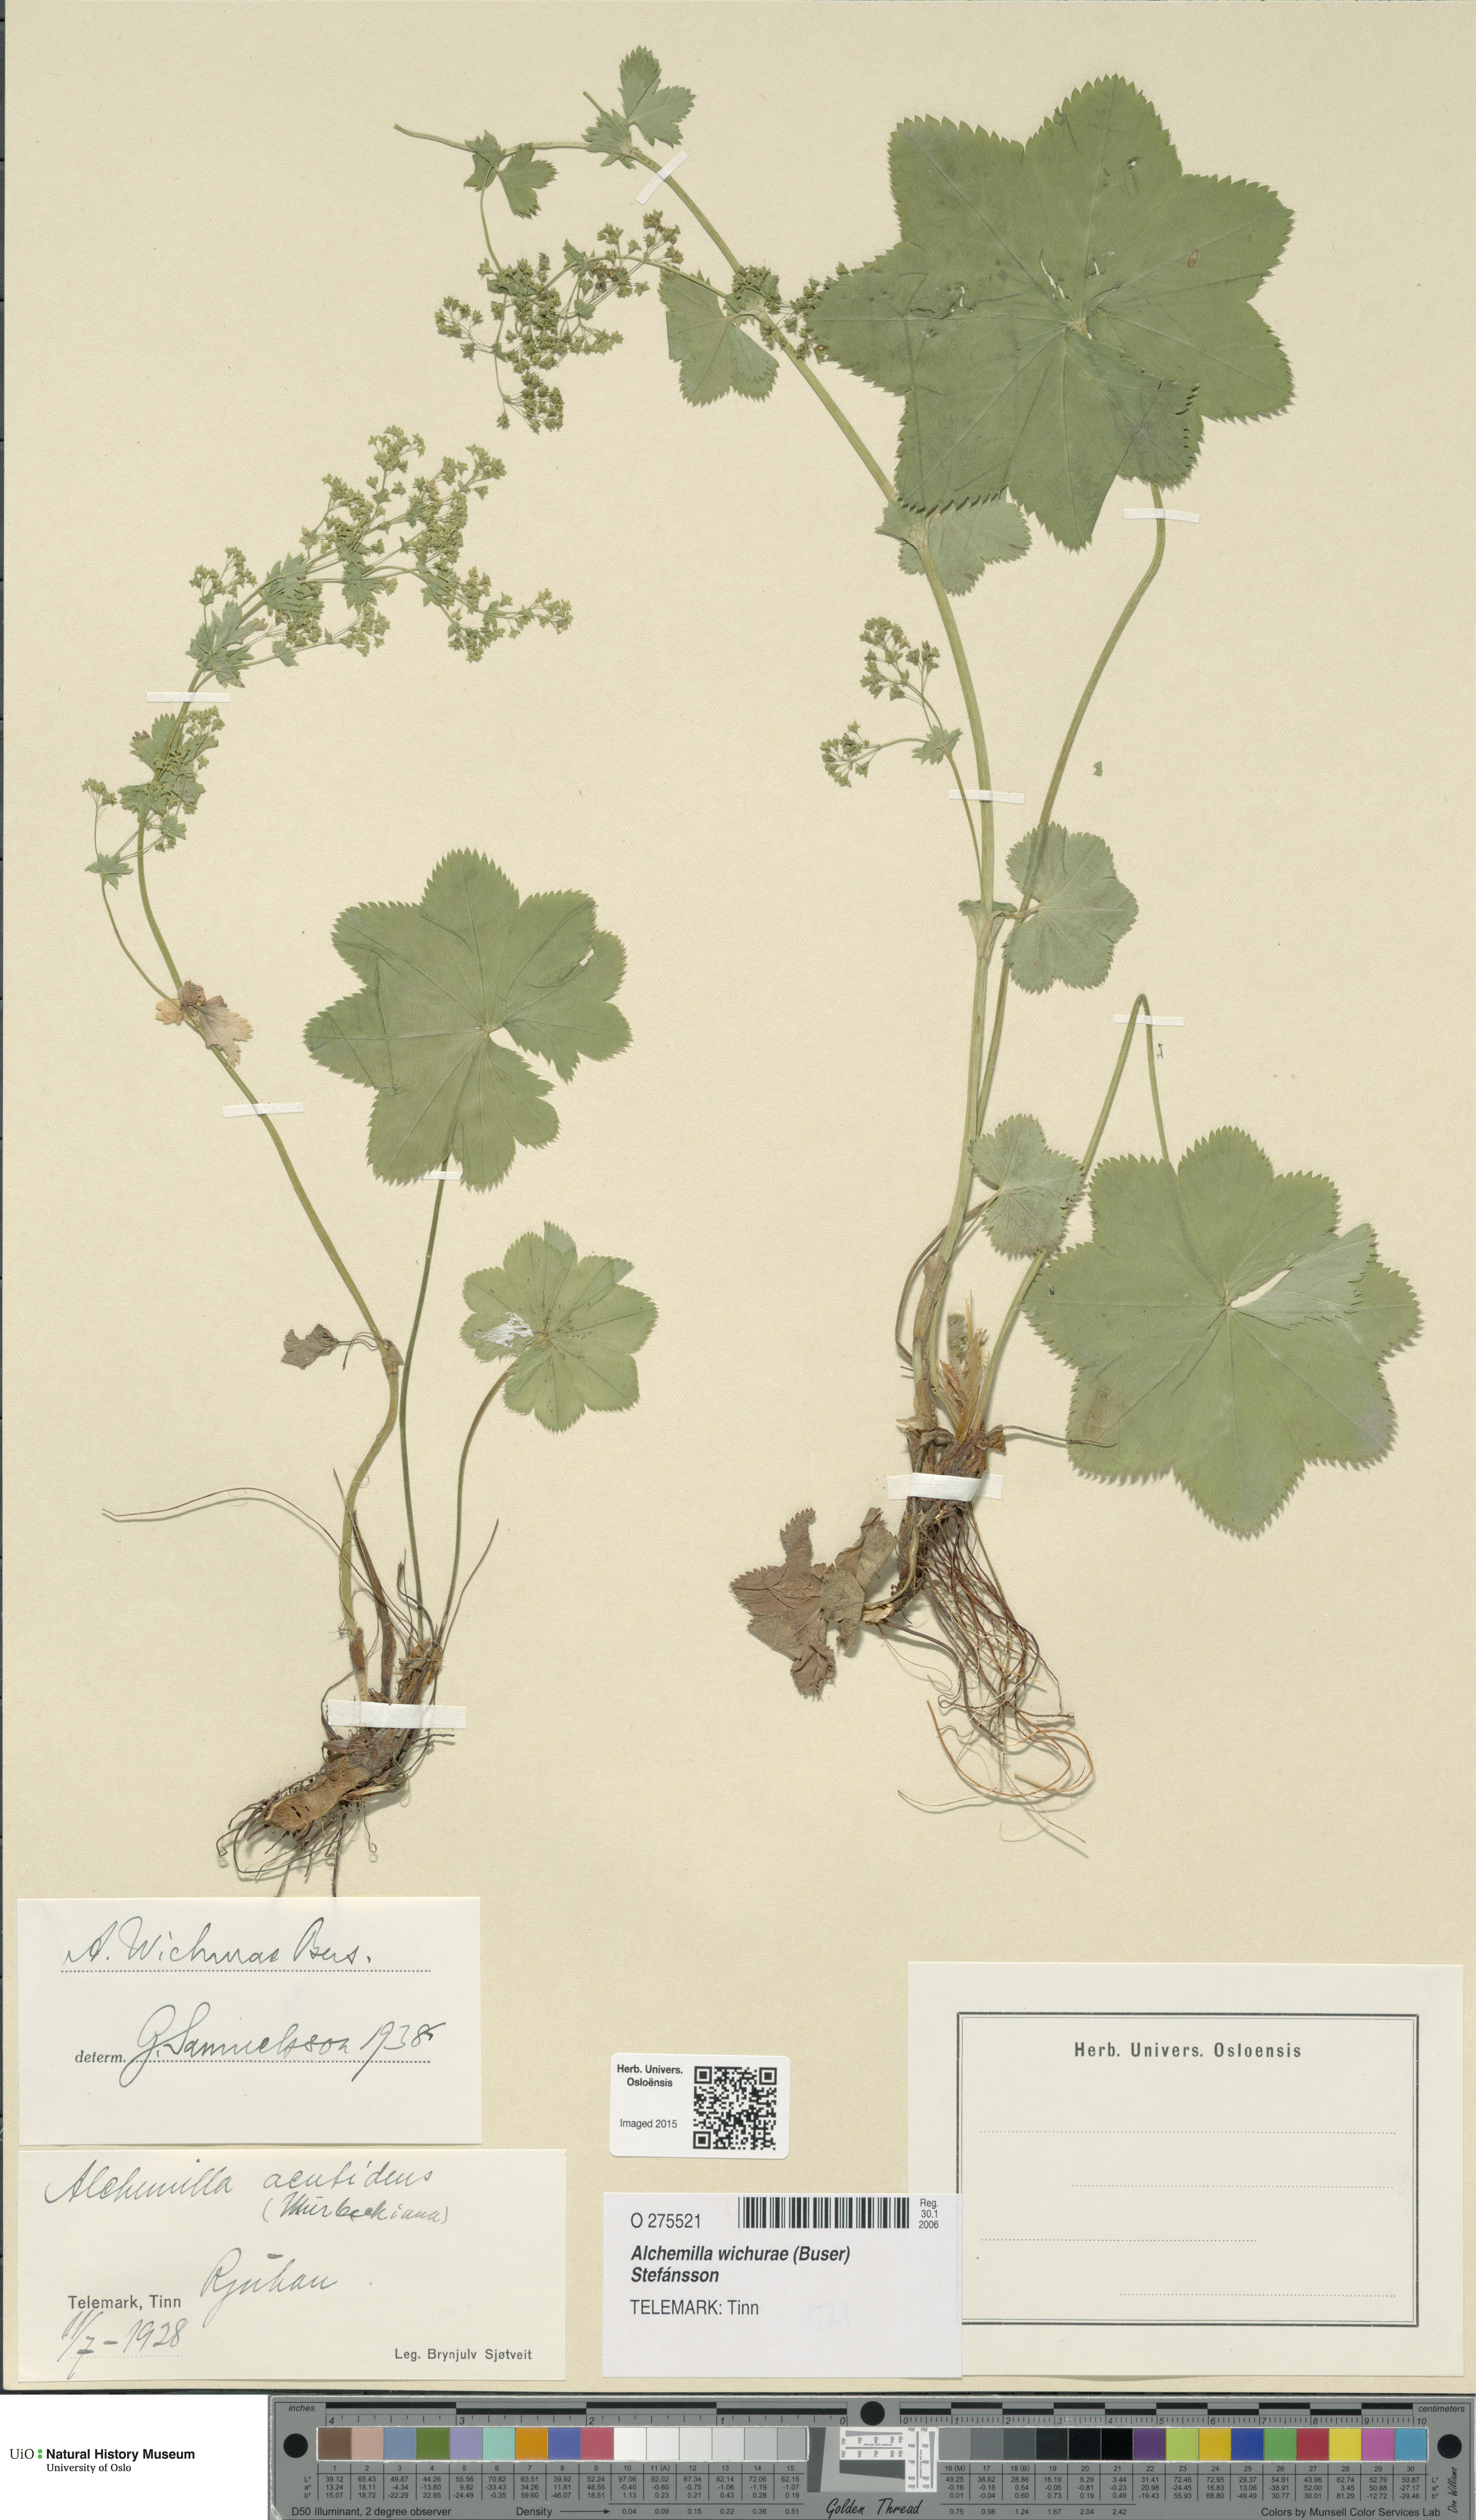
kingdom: Plantae
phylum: Tracheophyta
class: Magnoliopsida
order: Rosales
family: Rosaceae
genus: Alchemilla
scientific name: Alchemilla wichurae
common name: Rock lady's mantle
